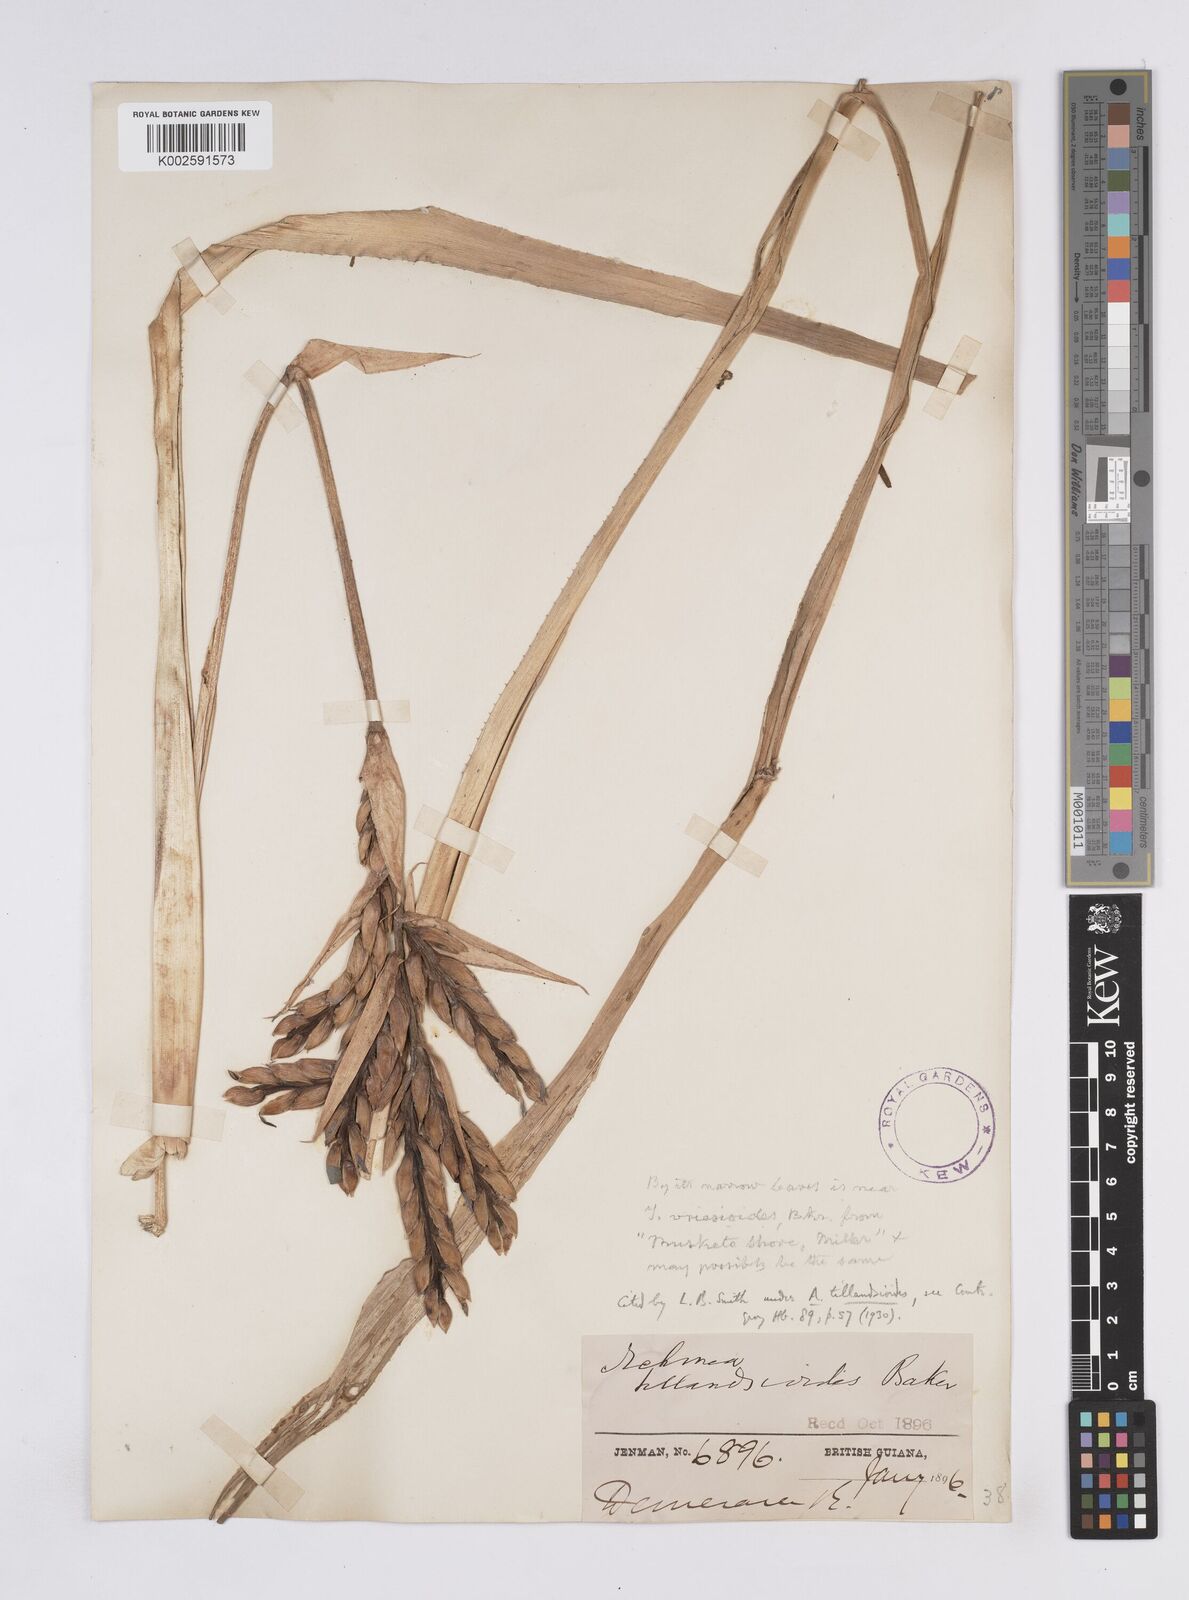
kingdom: Plantae
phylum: Tracheophyta
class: Liliopsida
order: Poales
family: Bromeliaceae
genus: Aechmea
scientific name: Aechmea tillandsioides
